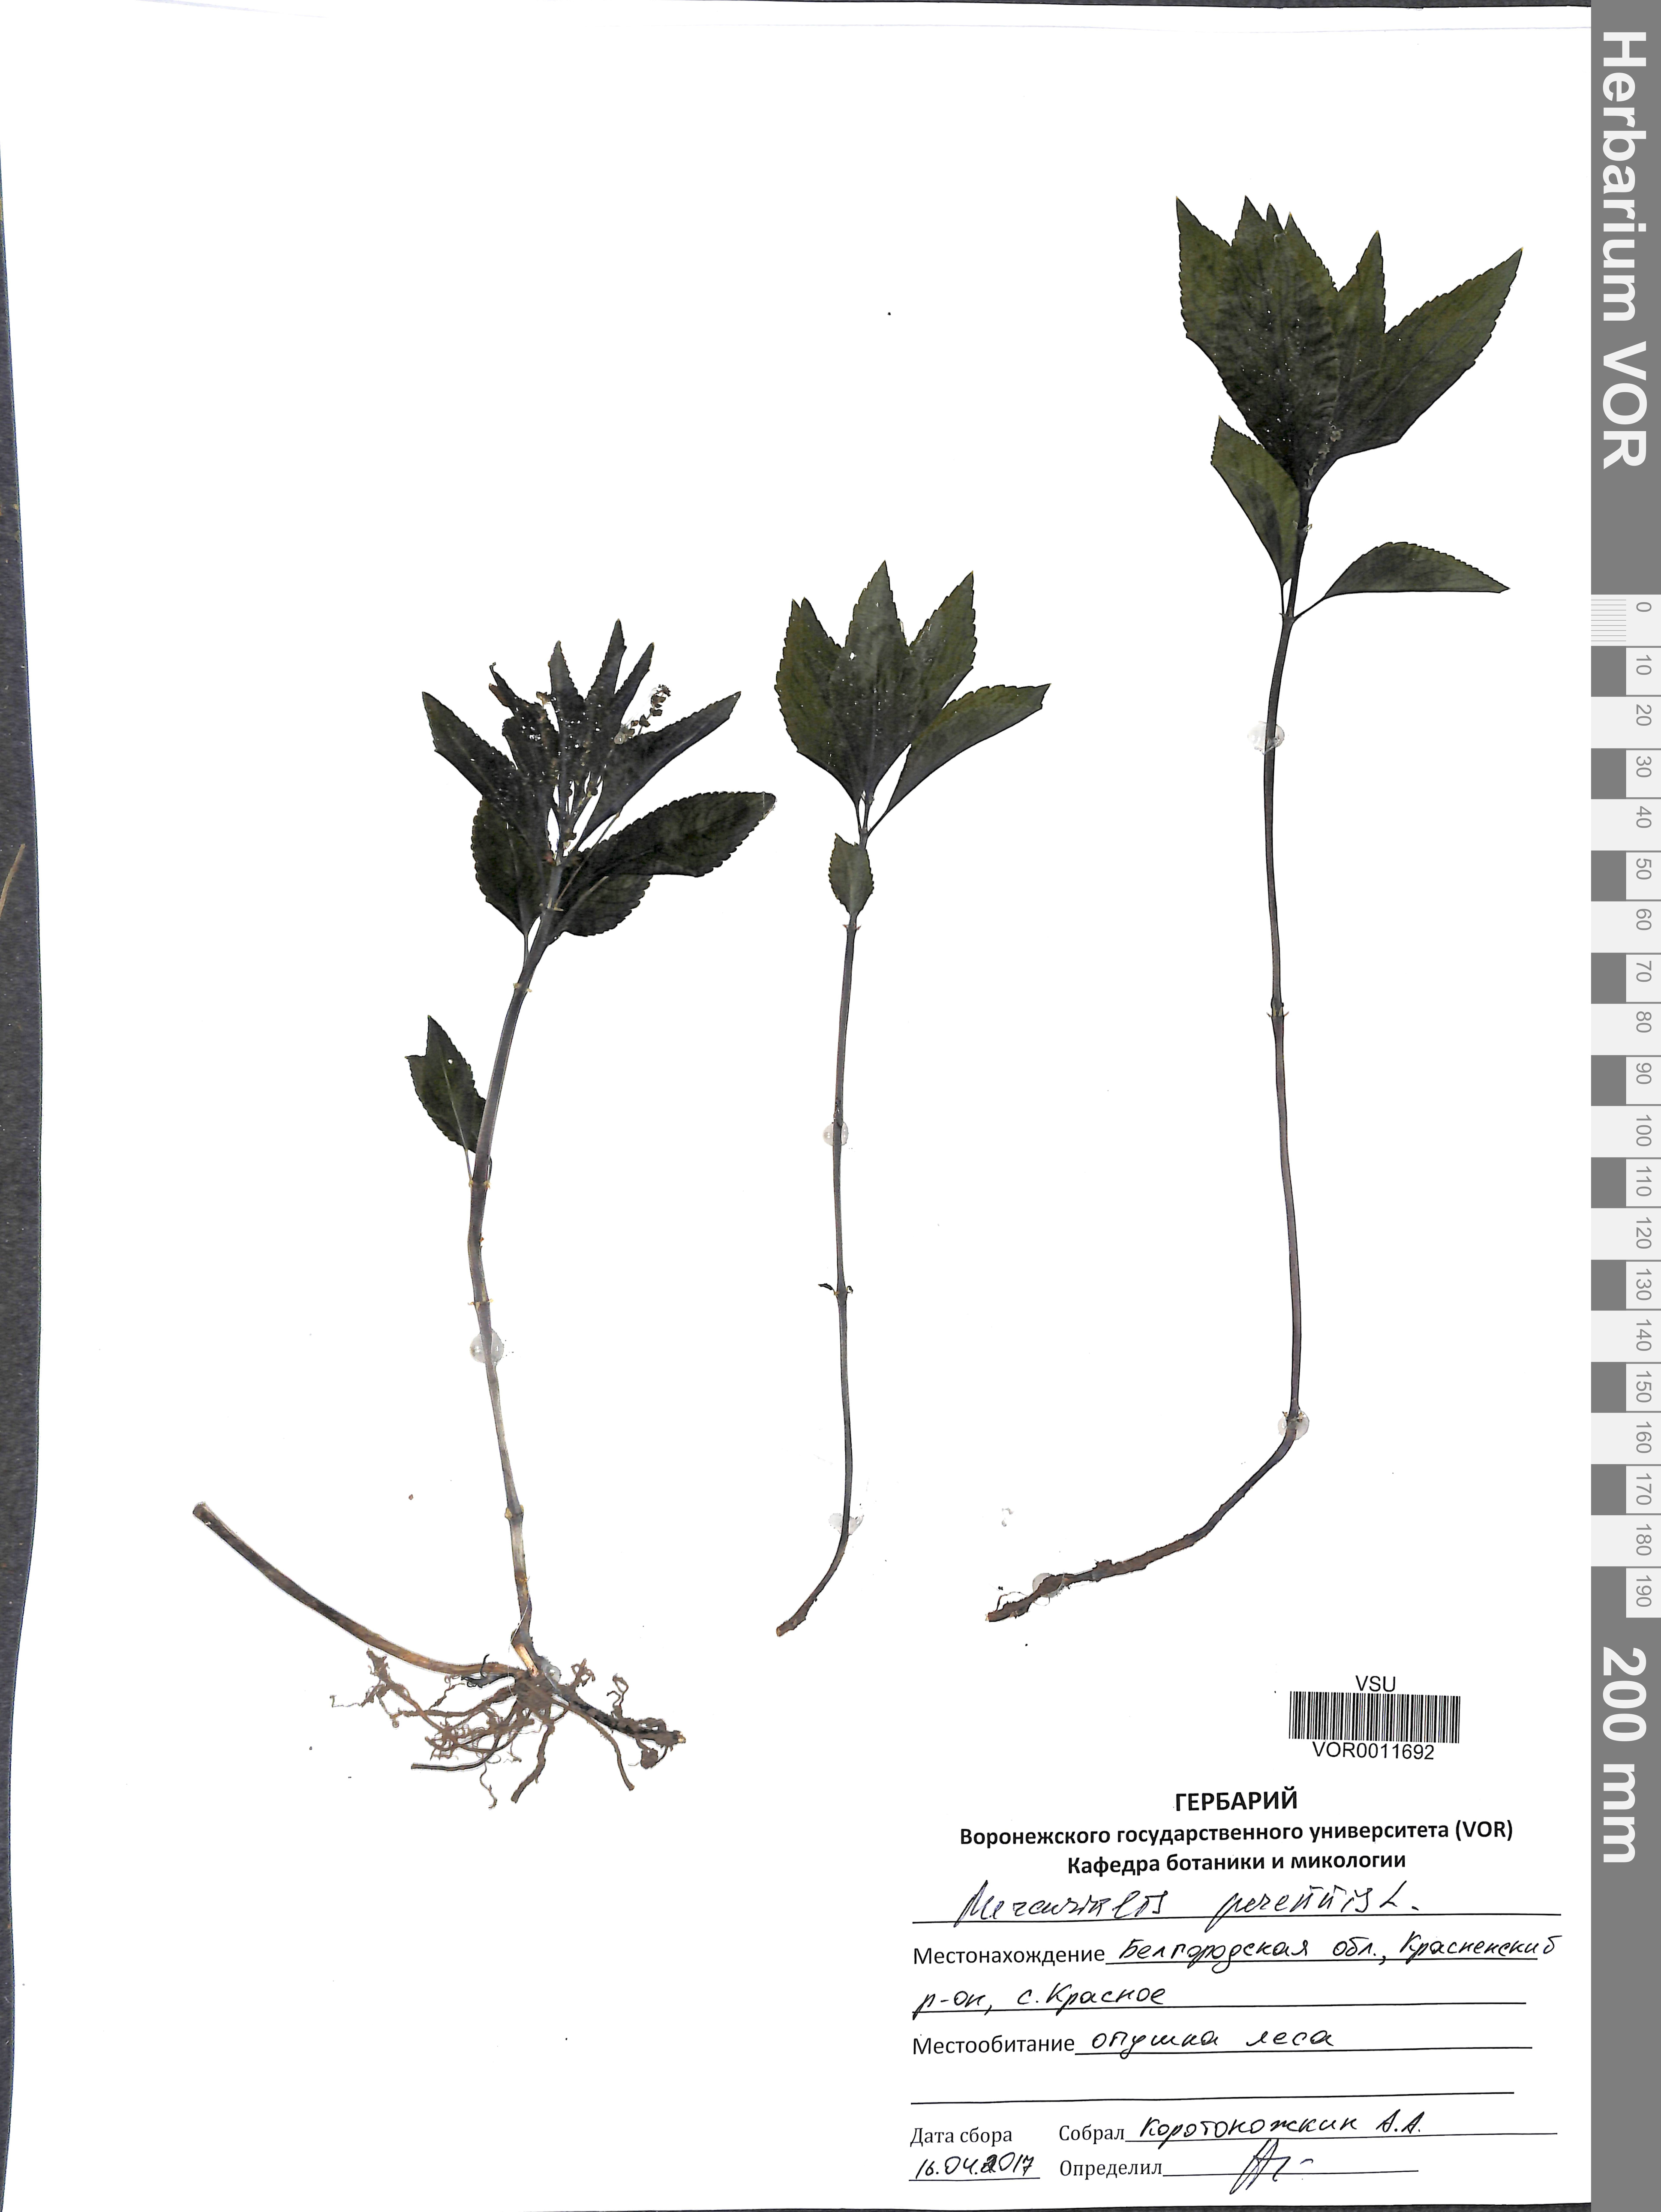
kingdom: Plantae
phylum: Tracheophyta
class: Magnoliopsida
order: Malpighiales
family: Euphorbiaceae
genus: Mercurialis
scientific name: Mercurialis perennis
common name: Dog mercury
